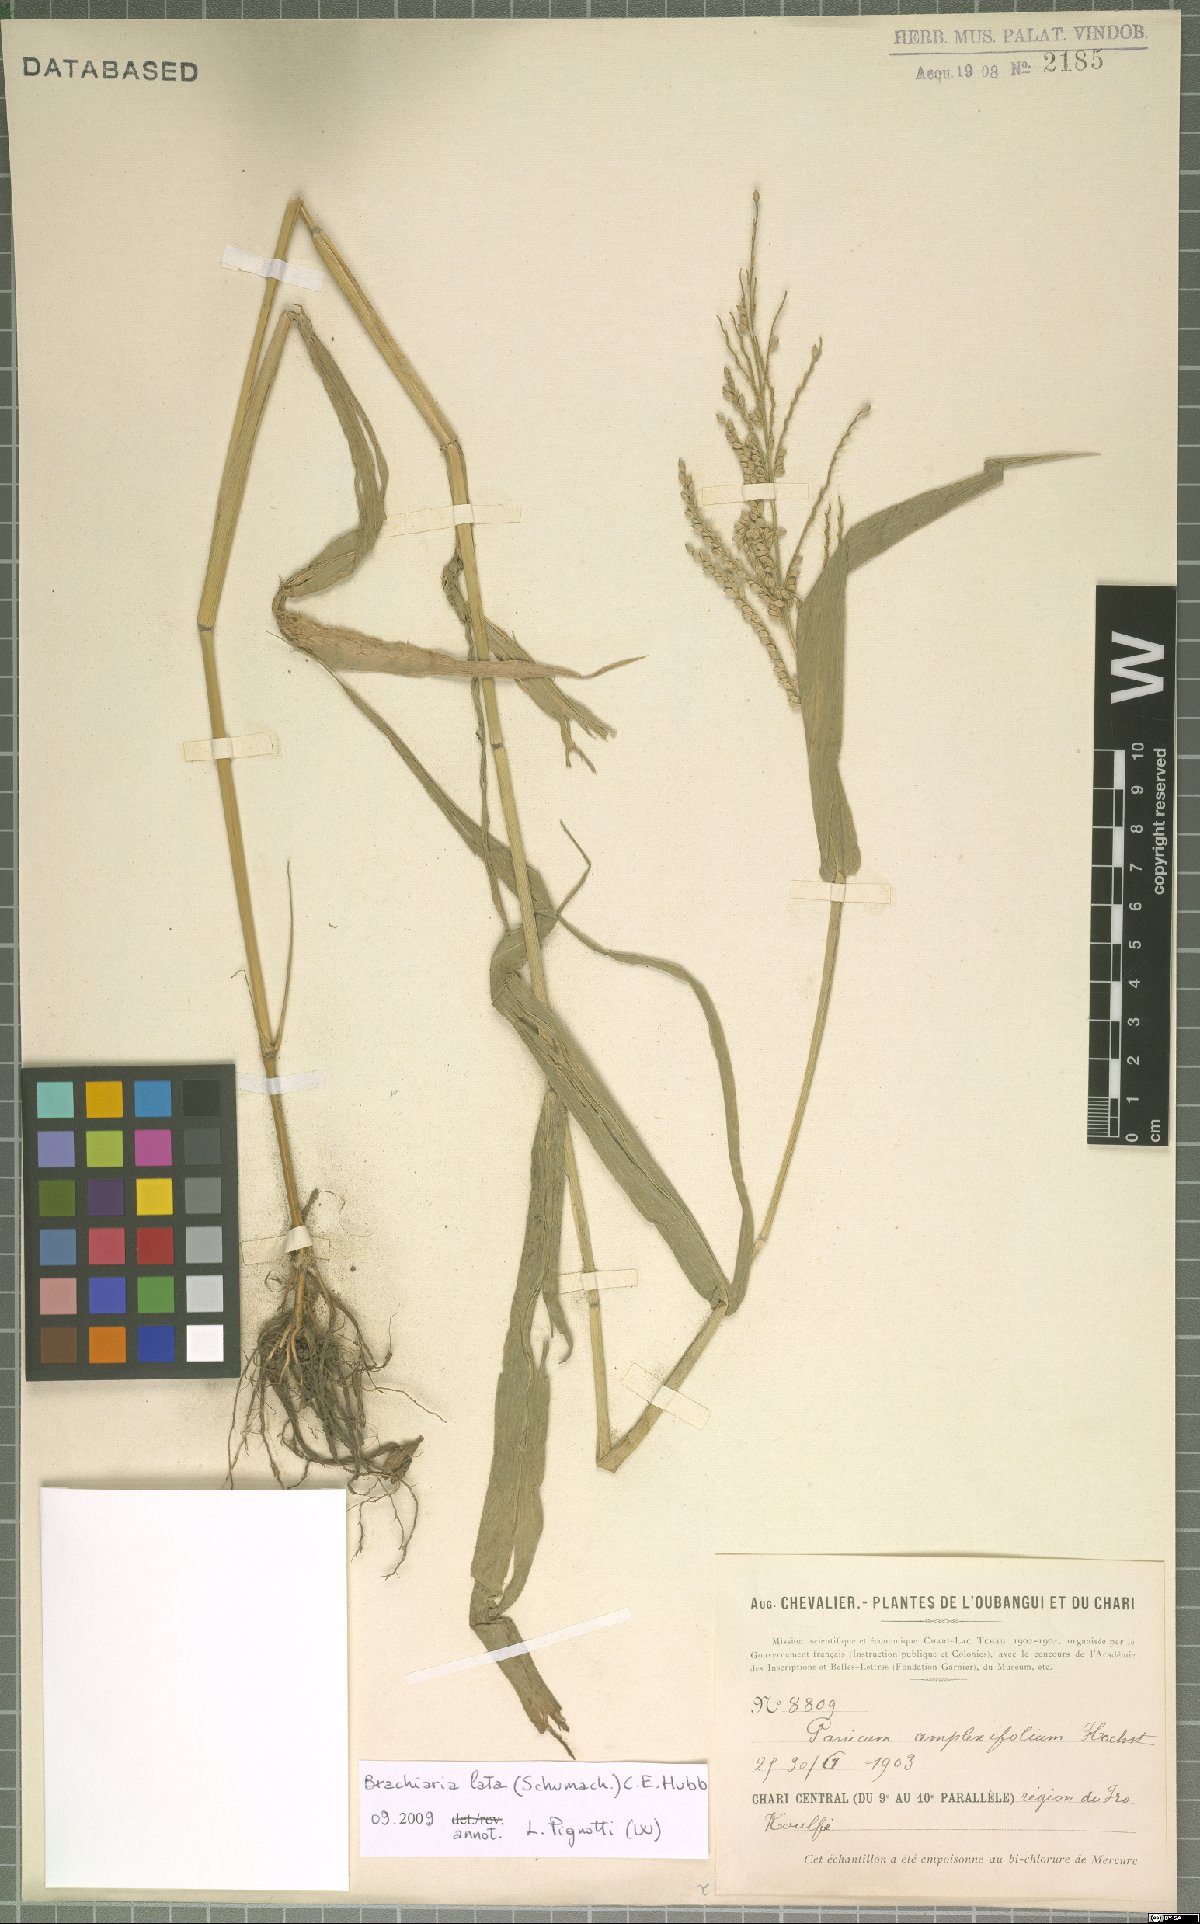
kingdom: Plantae
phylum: Tracheophyta
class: Liliopsida
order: Poales
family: Poaceae
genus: Urochloa
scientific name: Urochloa lata
